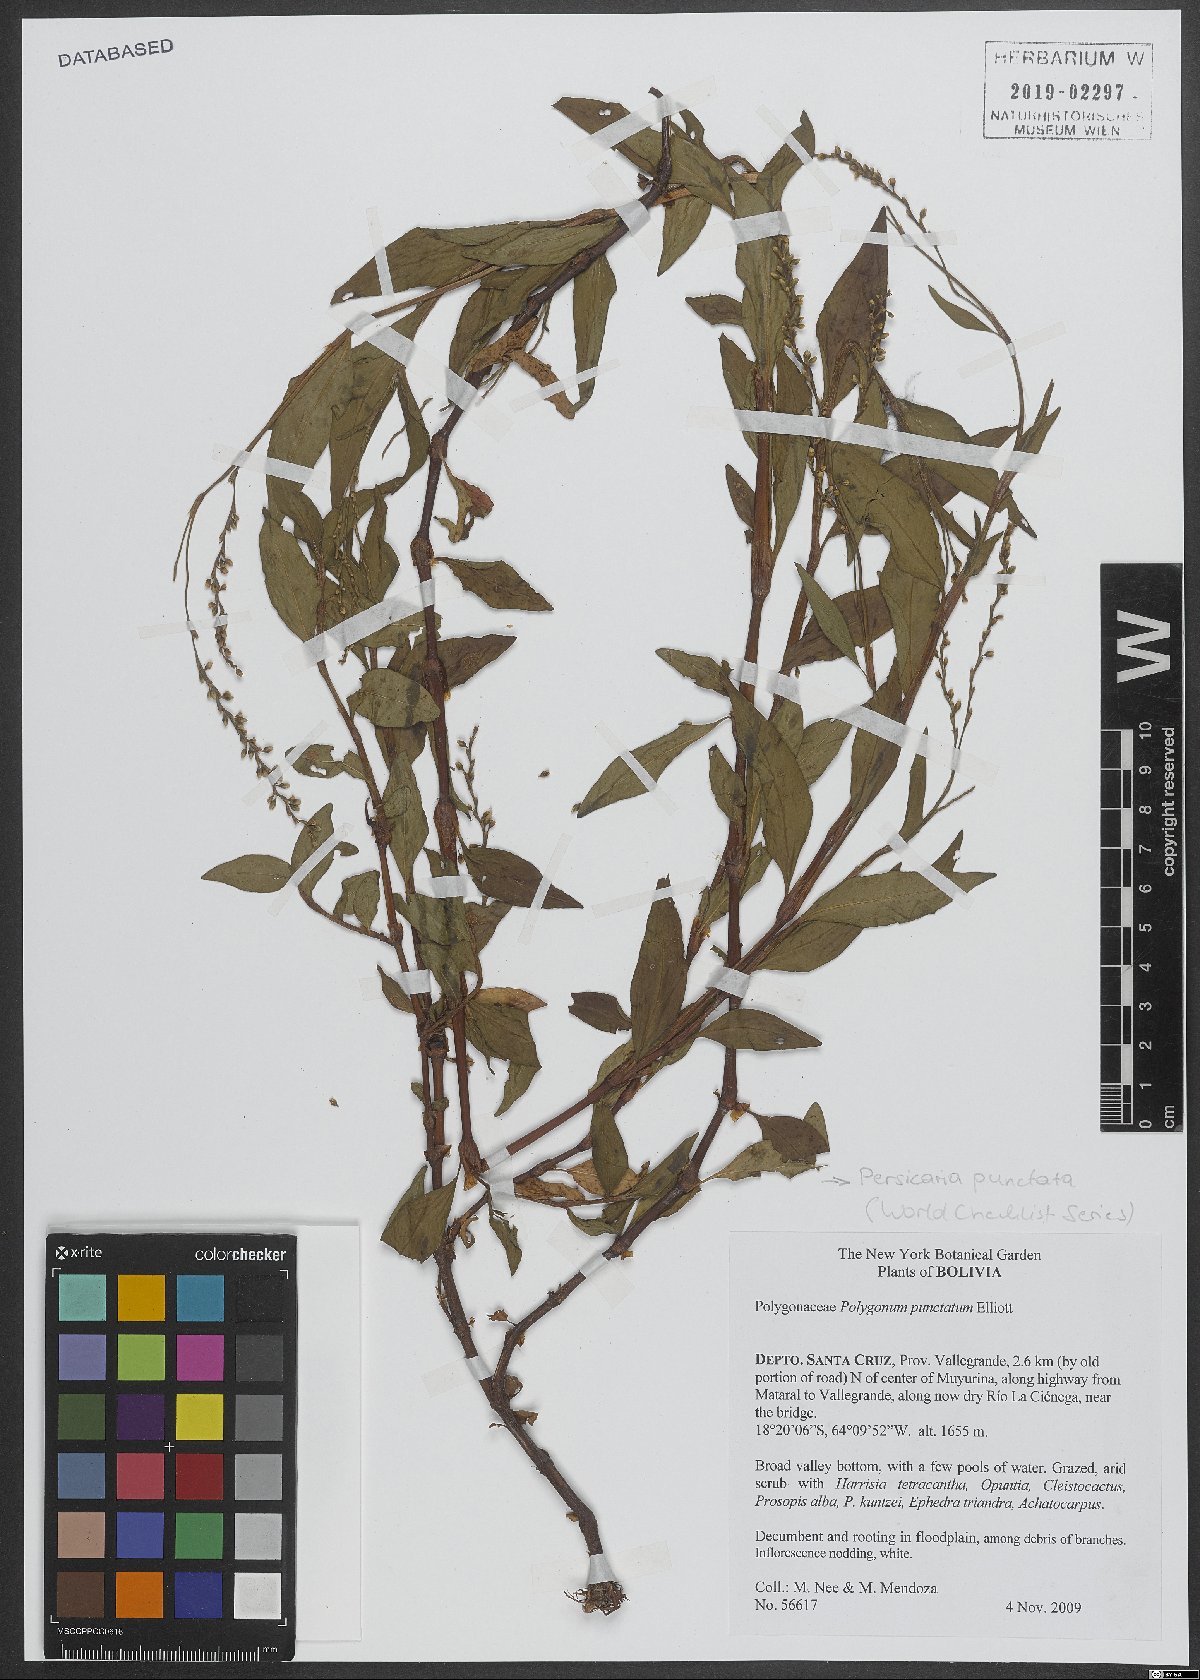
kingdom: Plantae
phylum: Tracheophyta
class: Magnoliopsida
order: Caryophyllales
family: Polygonaceae
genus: Persicaria
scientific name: Persicaria punctata
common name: Dotted smartweed
